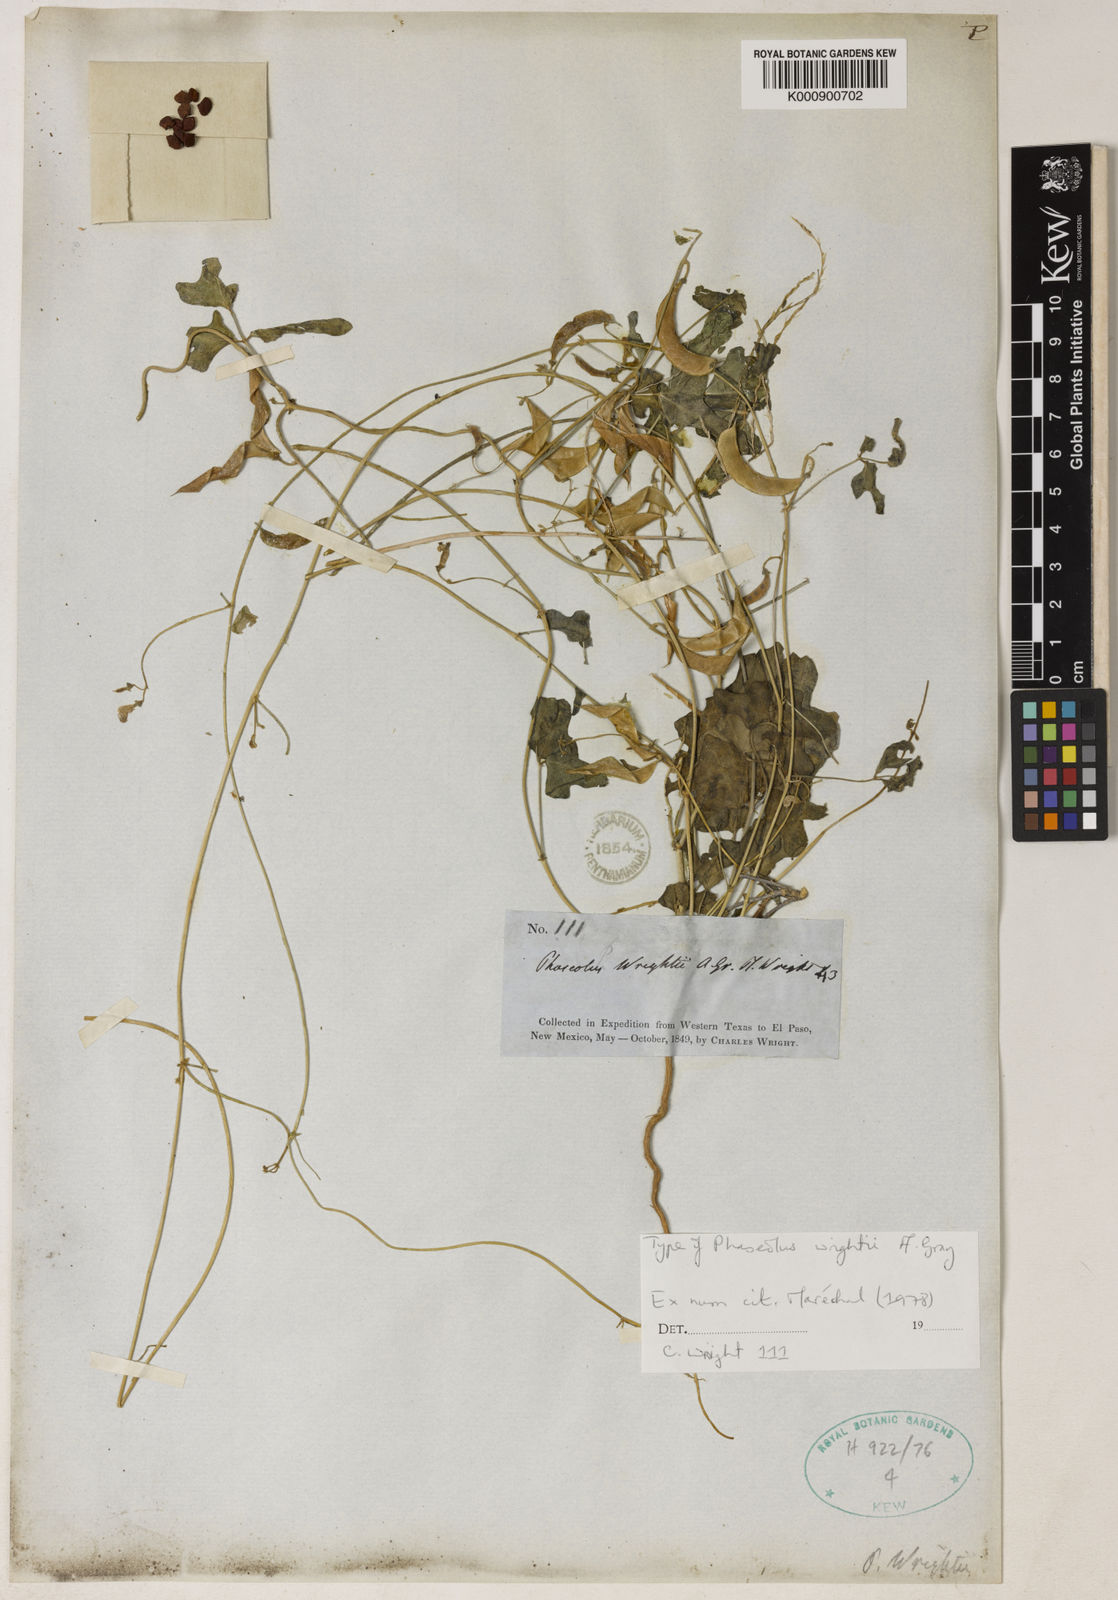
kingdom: Plantae
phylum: Tracheophyta
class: Magnoliopsida
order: Fabales
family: Fabaceae
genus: Phaseolus
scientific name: Phaseolus filiformis
